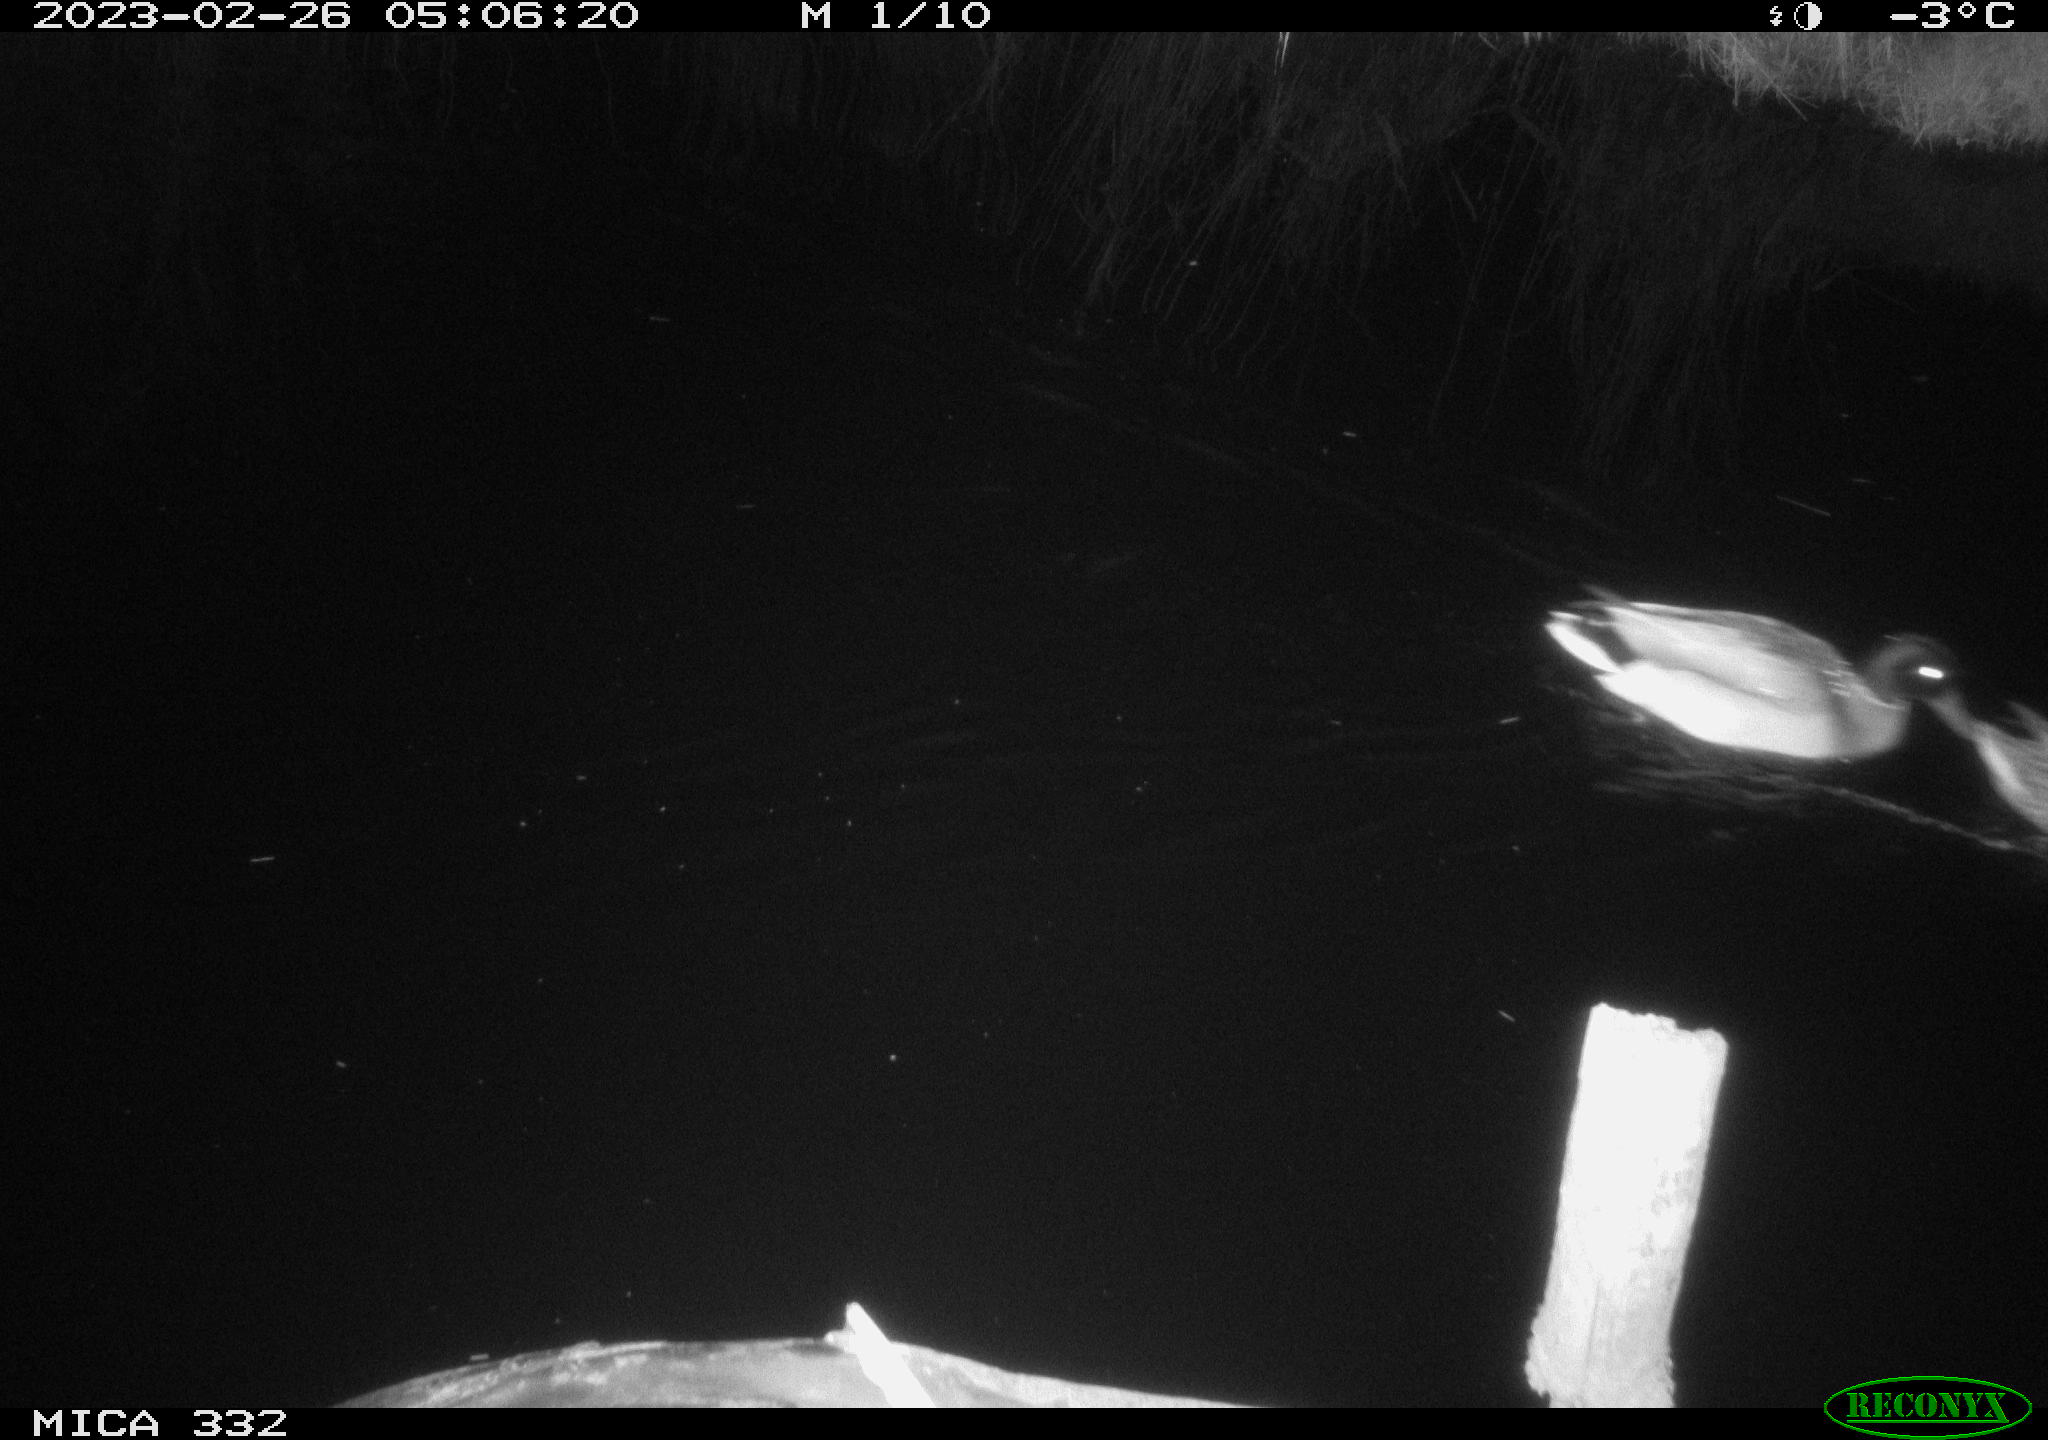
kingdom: Animalia
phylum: Chordata
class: Aves
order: Anseriformes
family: Anatidae
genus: Anas
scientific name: Anas
